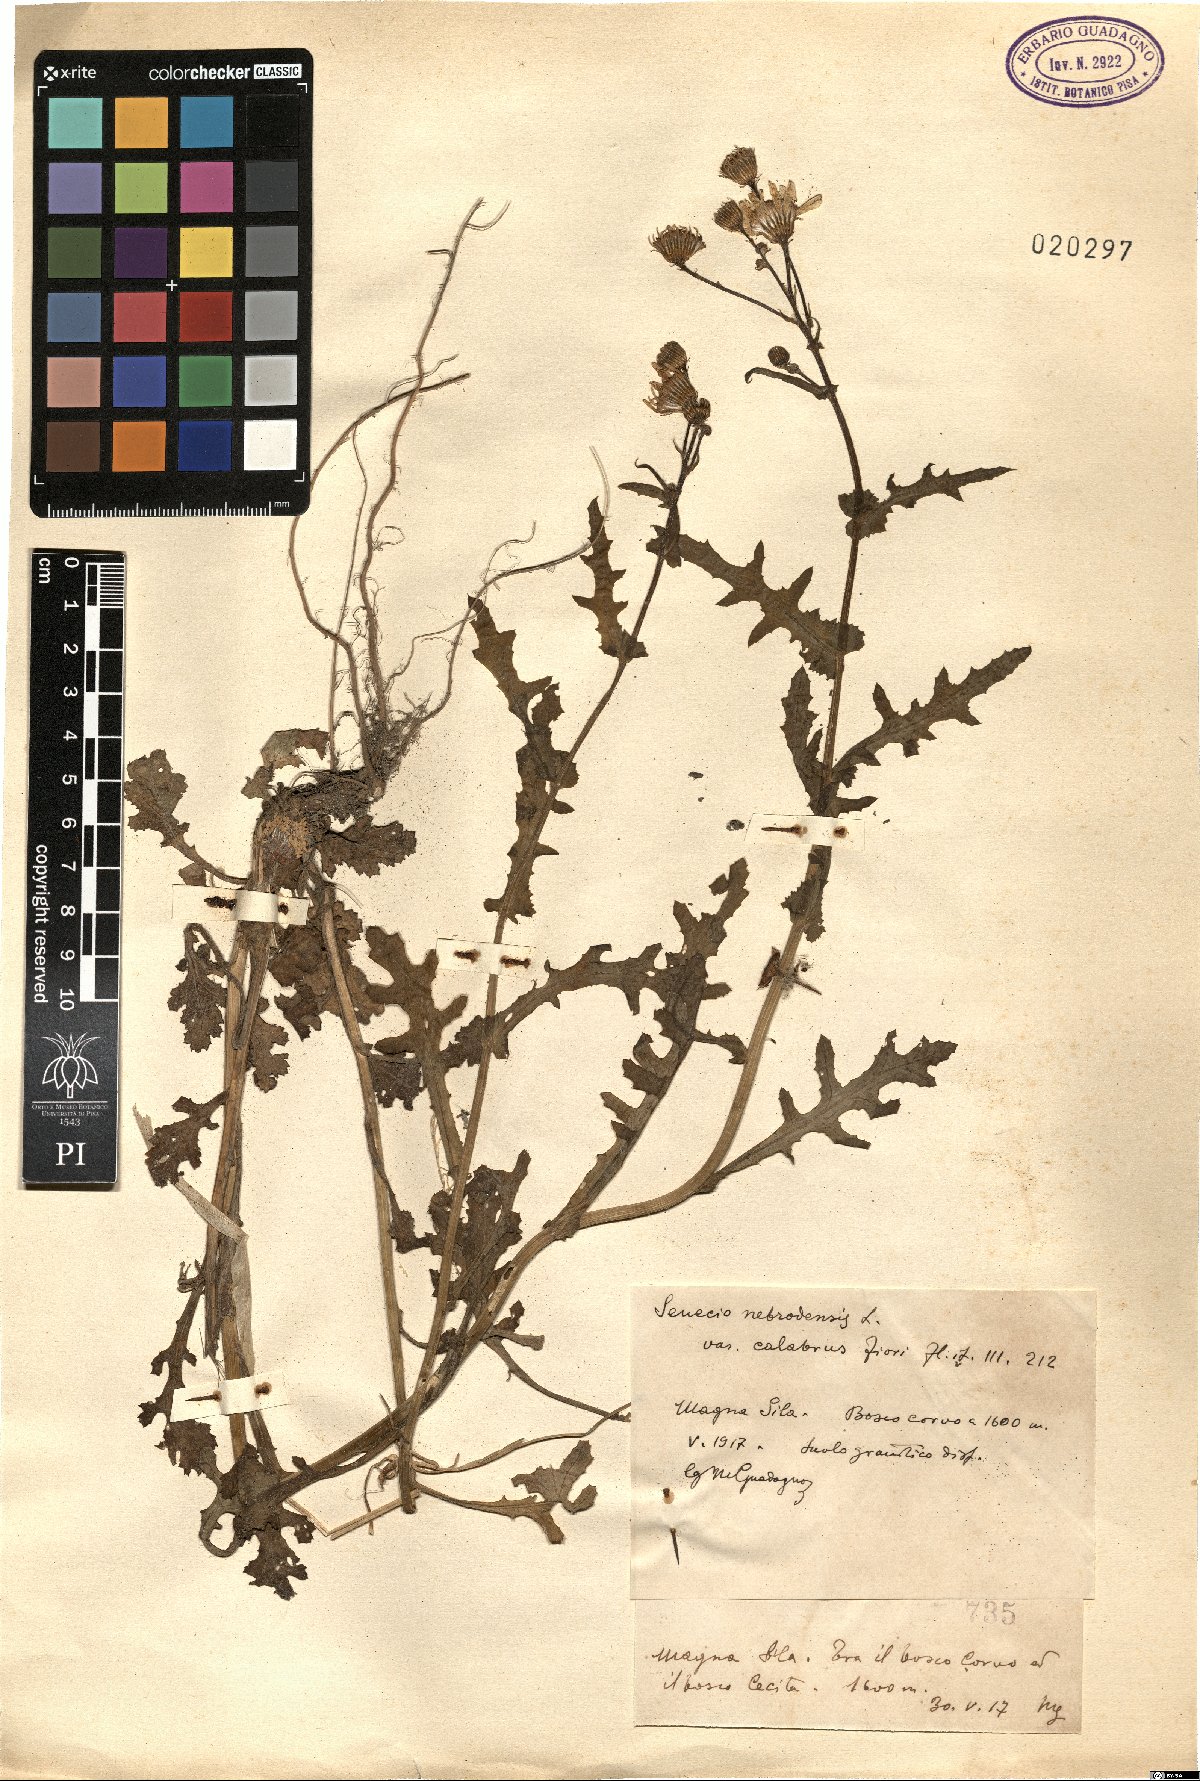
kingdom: Plantae
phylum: Tracheophyta
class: Magnoliopsida
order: Asterales
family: Asteraceae
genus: Senecio
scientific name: Senecio calabrus
